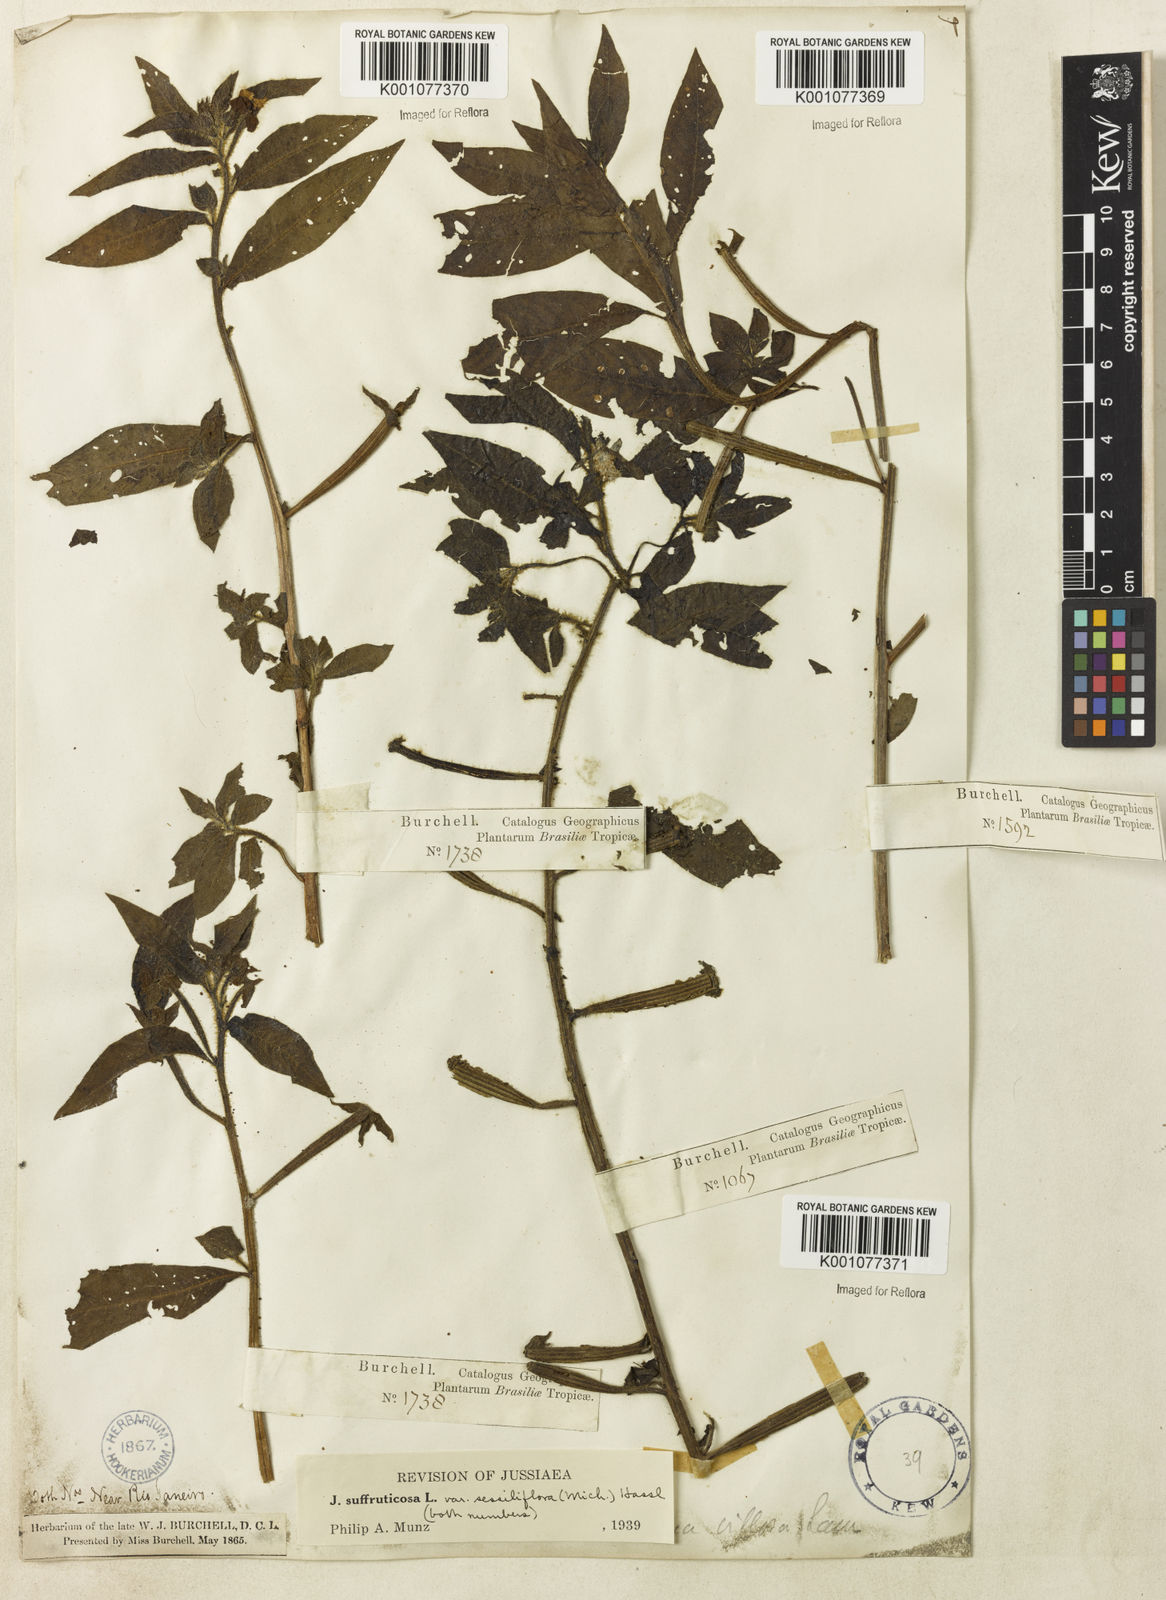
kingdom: Plantae
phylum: Tracheophyta
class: Magnoliopsida
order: Myrtales
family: Onagraceae
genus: Ludwigia
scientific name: Ludwigia octovalvis
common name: Water-primrose
